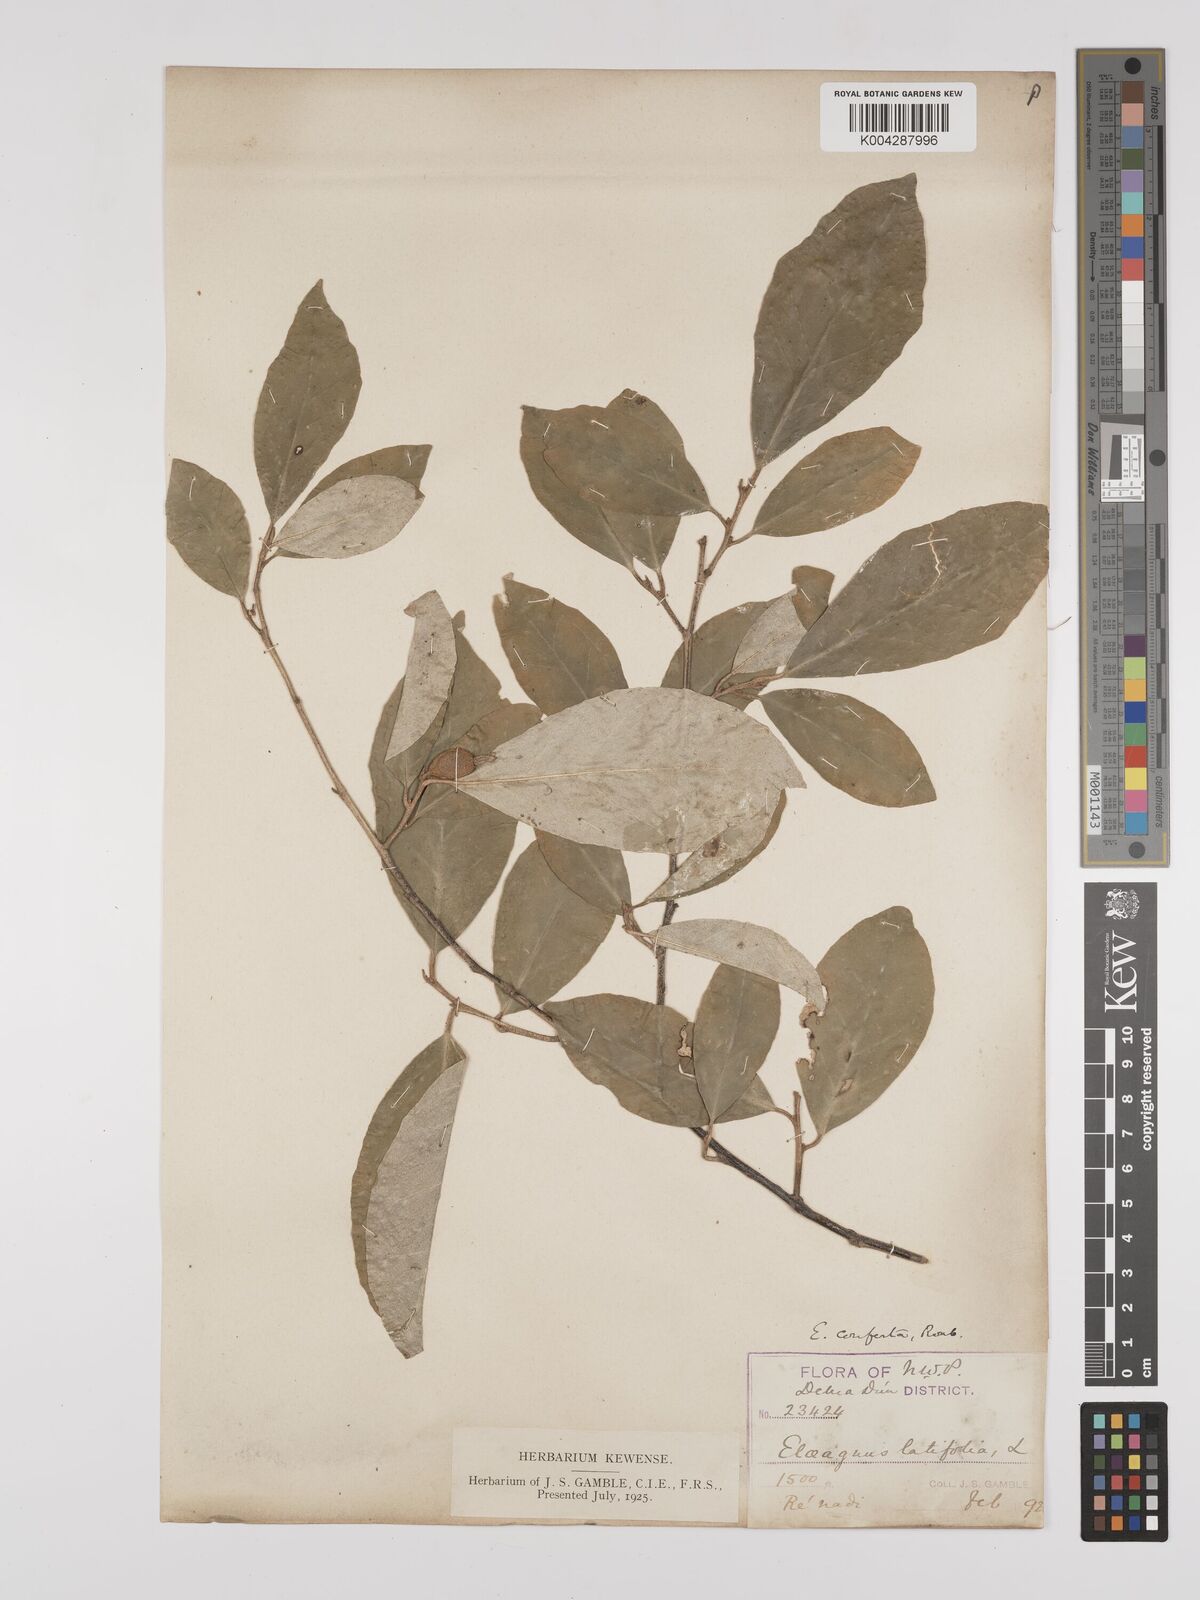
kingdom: Plantae
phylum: Tracheophyta
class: Magnoliopsida
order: Rosales
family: Elaeagnaceae
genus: Elaeagnus
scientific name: Elaeagnus latifolia
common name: Oleaster
